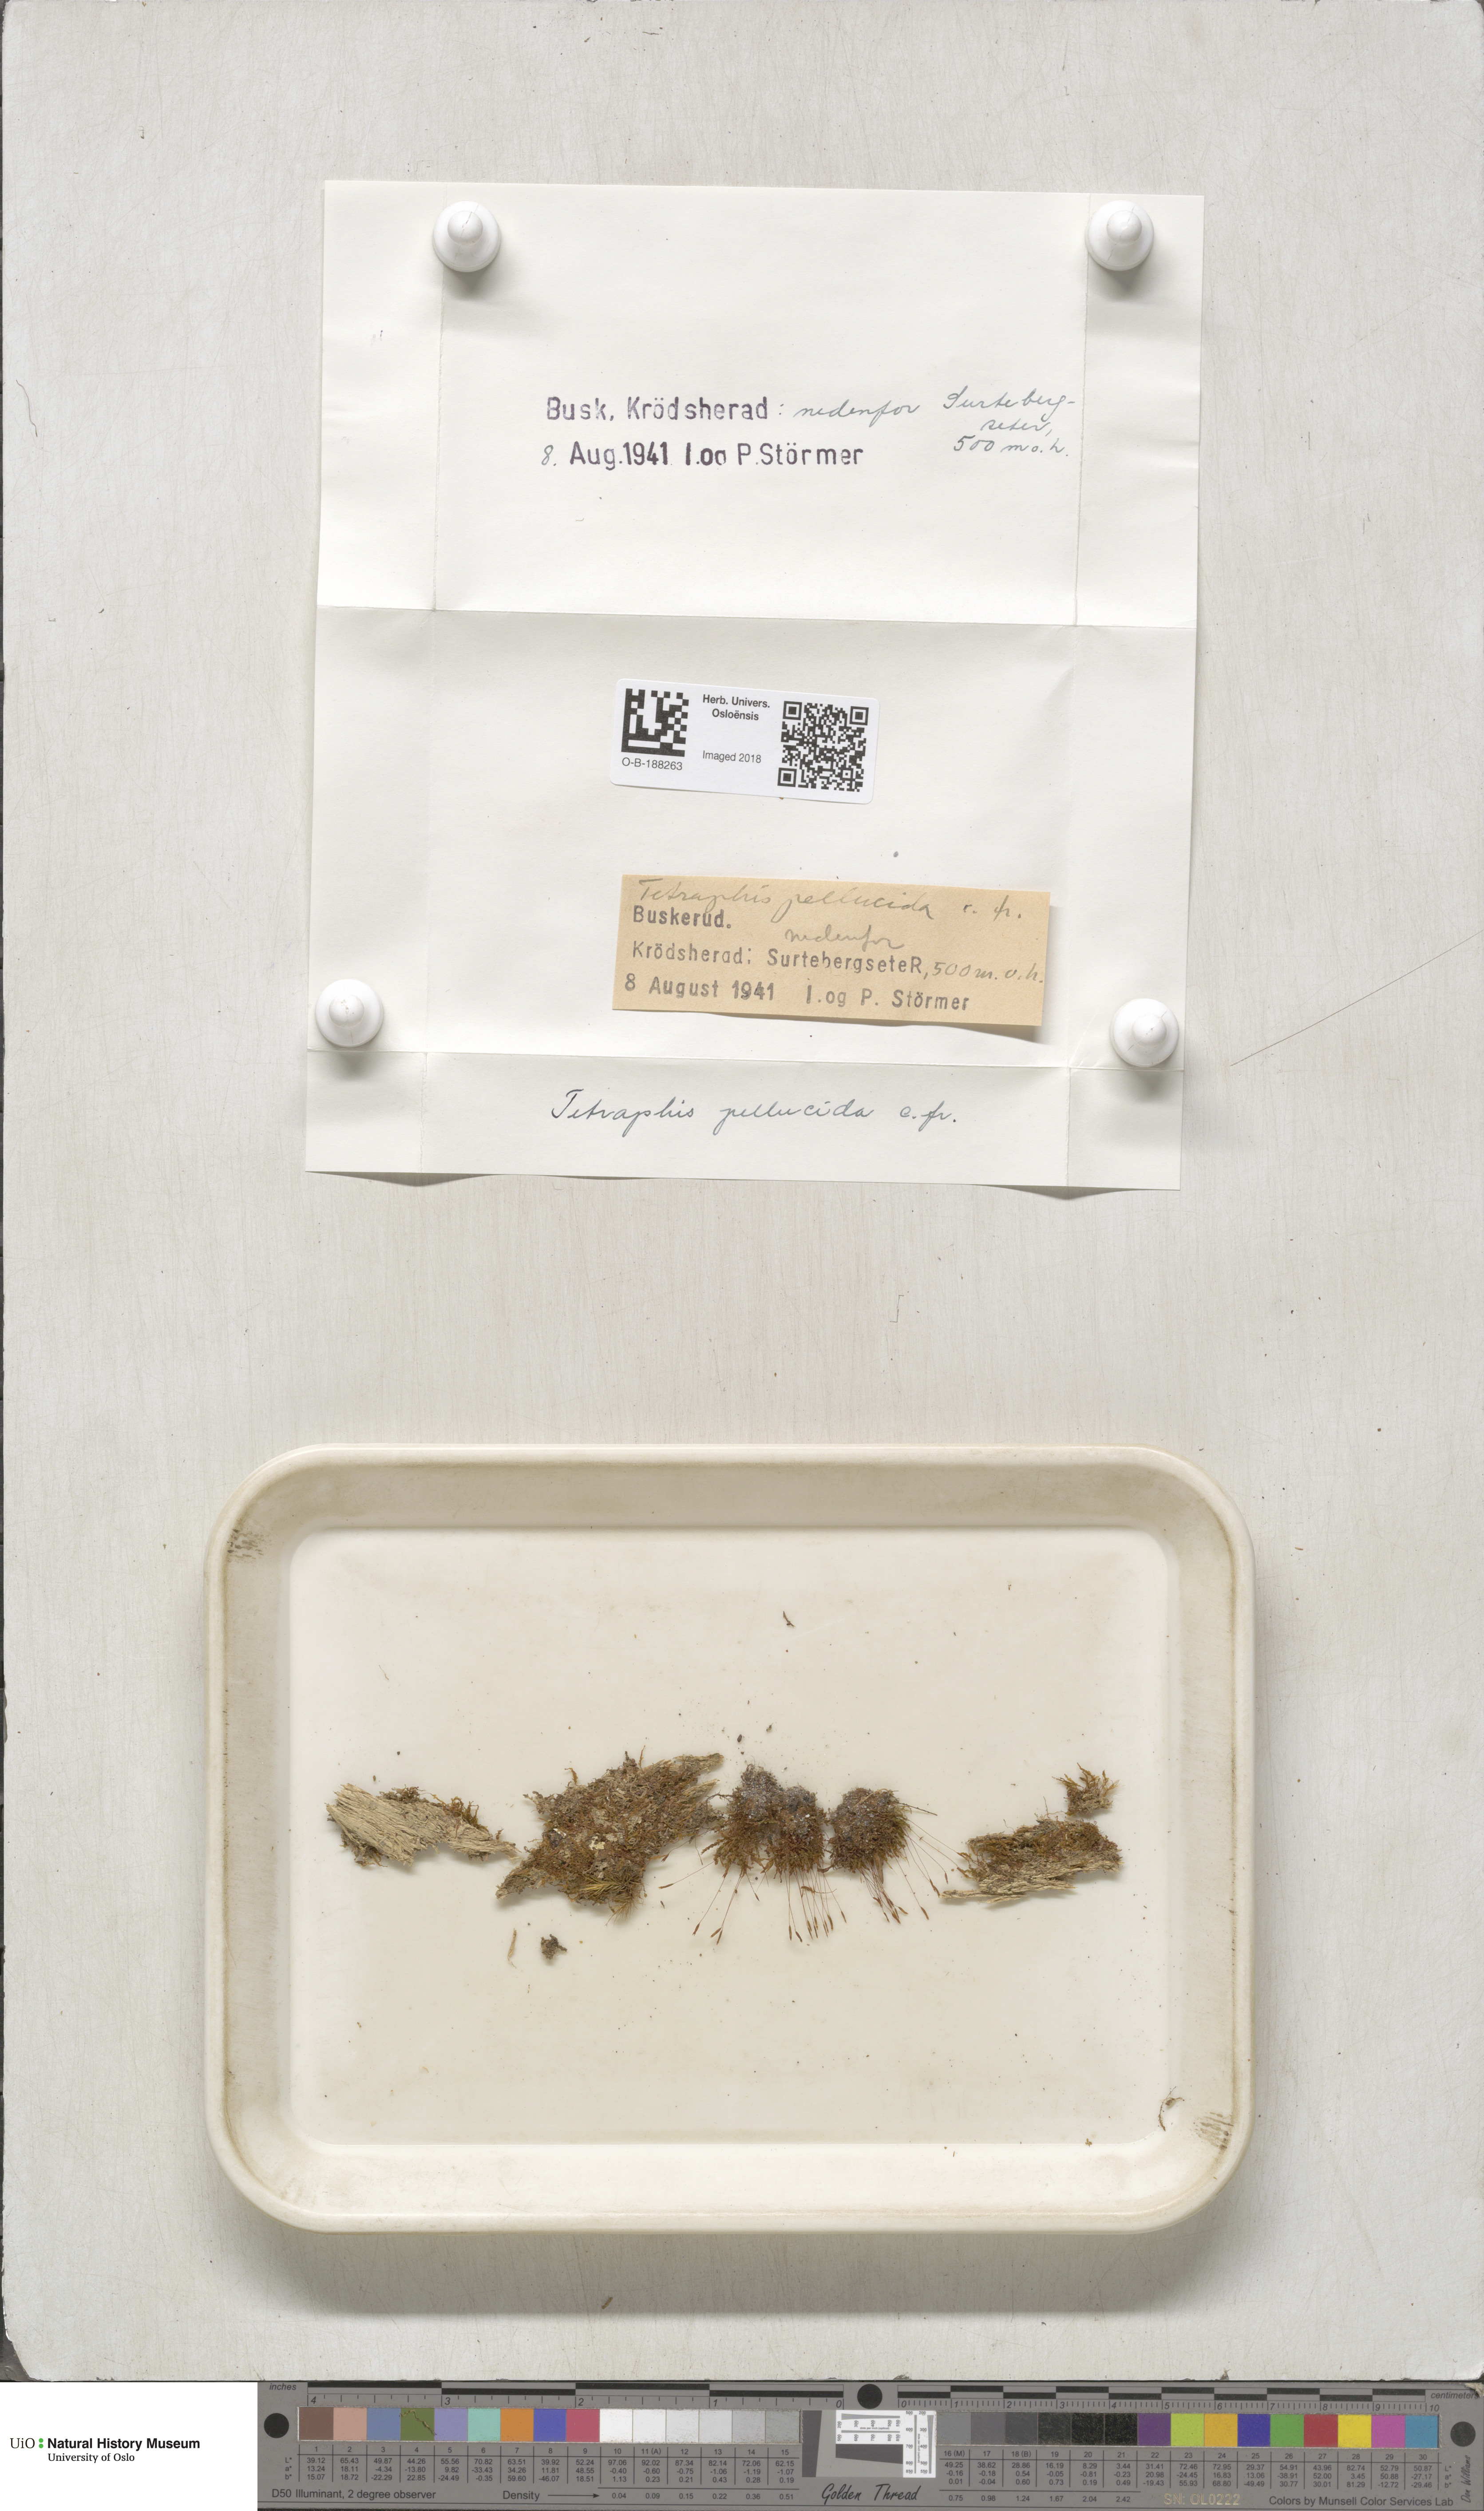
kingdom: Plantae
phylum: Bryophyta
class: Polytrichopsida
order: Tetraphidales
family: Tetraphidaceae
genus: Tetraphis
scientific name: Tetraphis pellucida
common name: Common four-toothed moss
